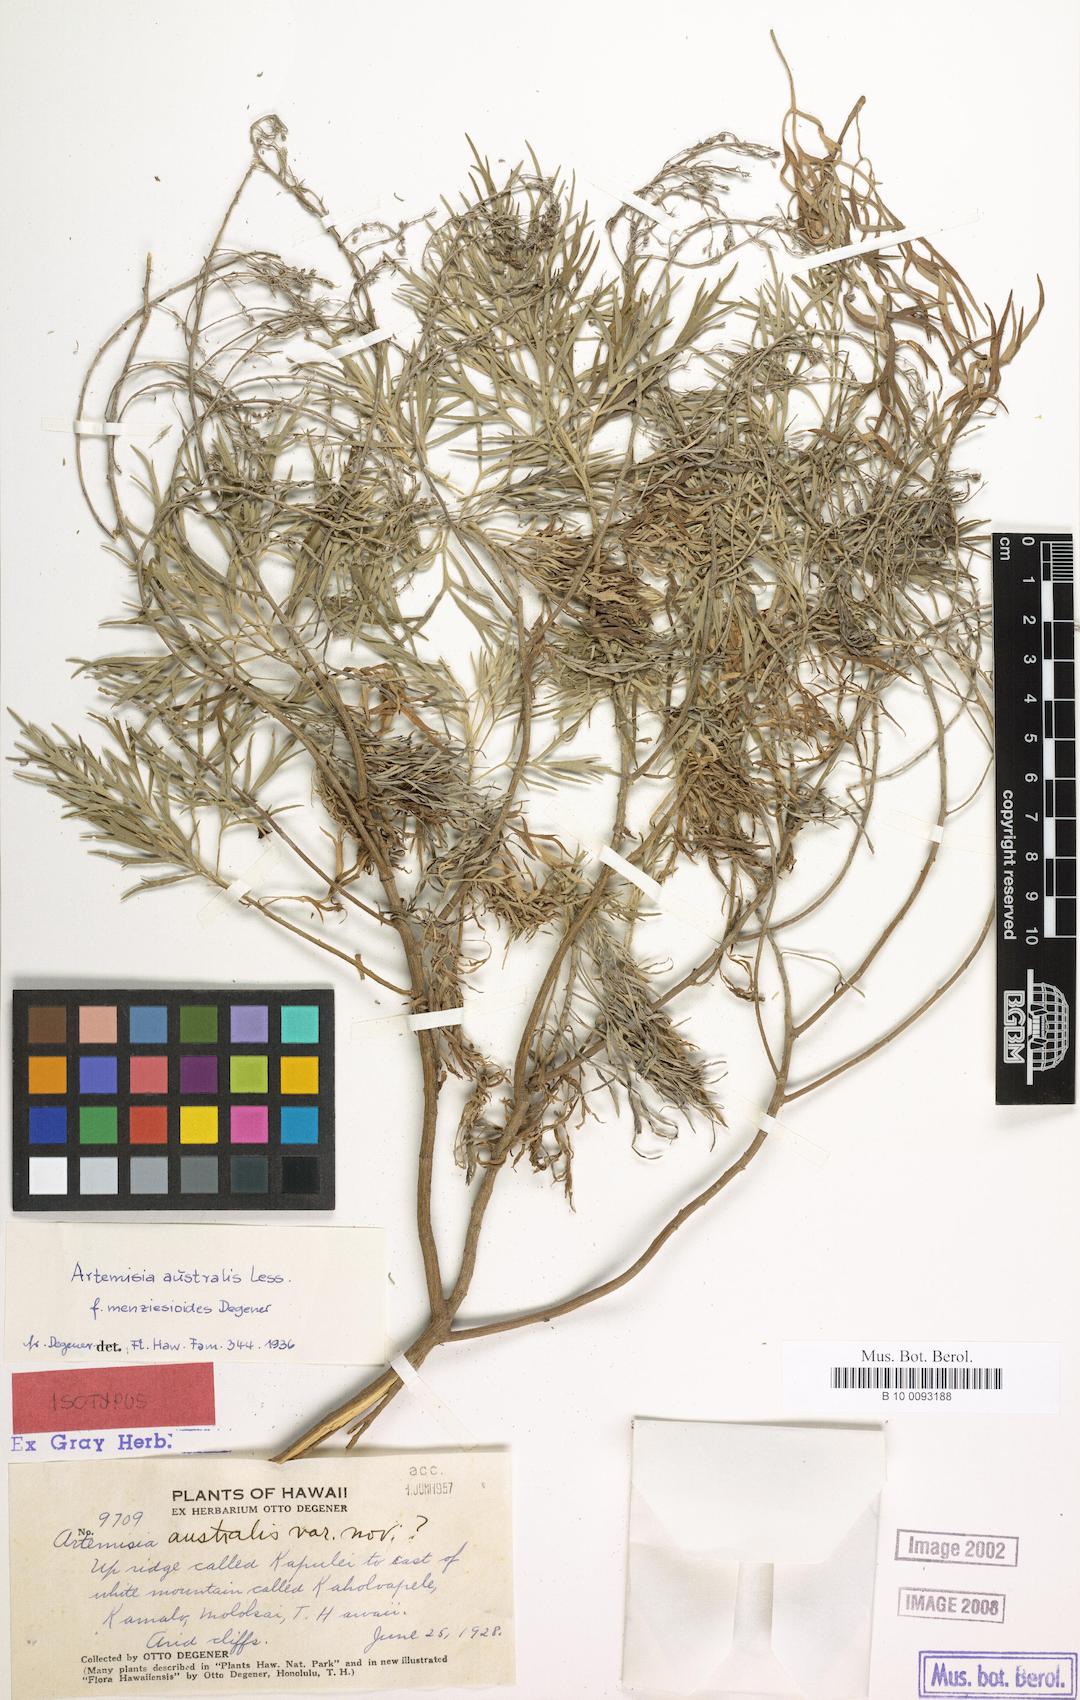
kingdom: Plantae
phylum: Tracheophyta
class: Magnoliopsida
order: Asterales
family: Asteraceae
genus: Artemisia
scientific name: Artemisia australis
